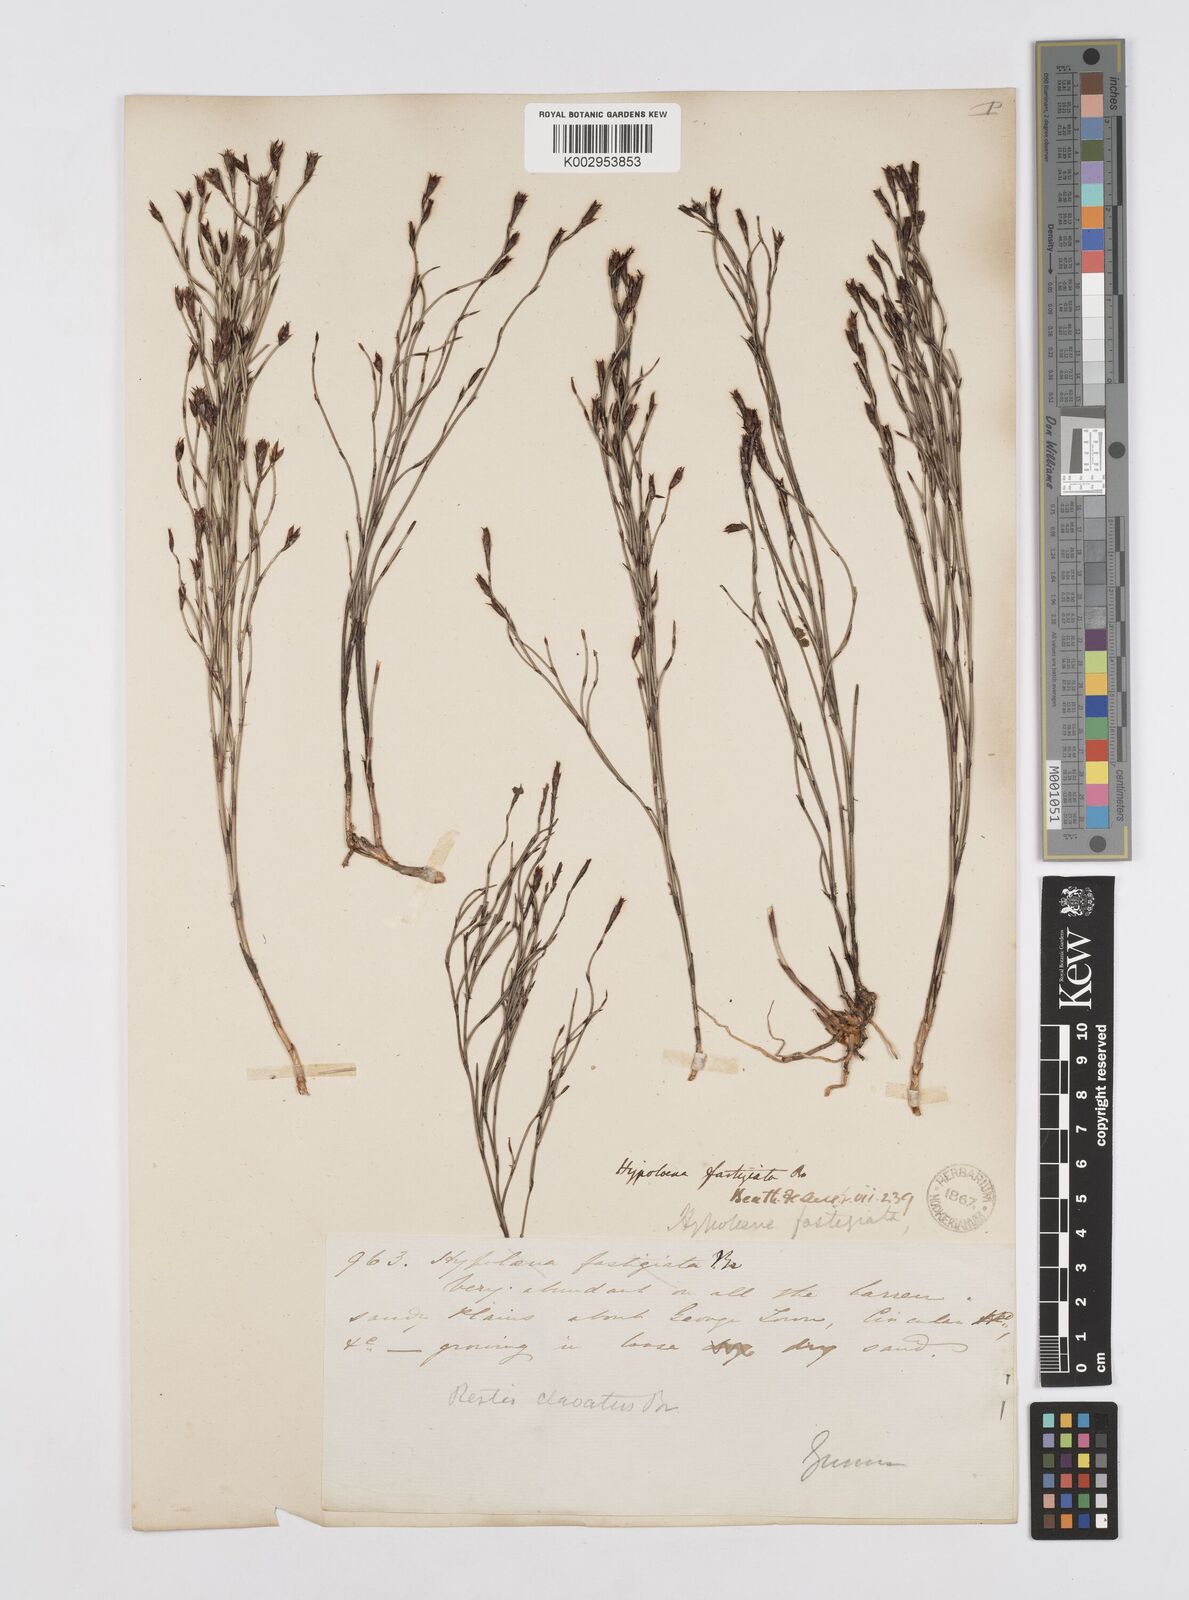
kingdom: Plantae
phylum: Tracheophyta
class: Liliopsida
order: Poales
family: Restionaceae
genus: Hypolaena
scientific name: Hypolaena fastigiata
